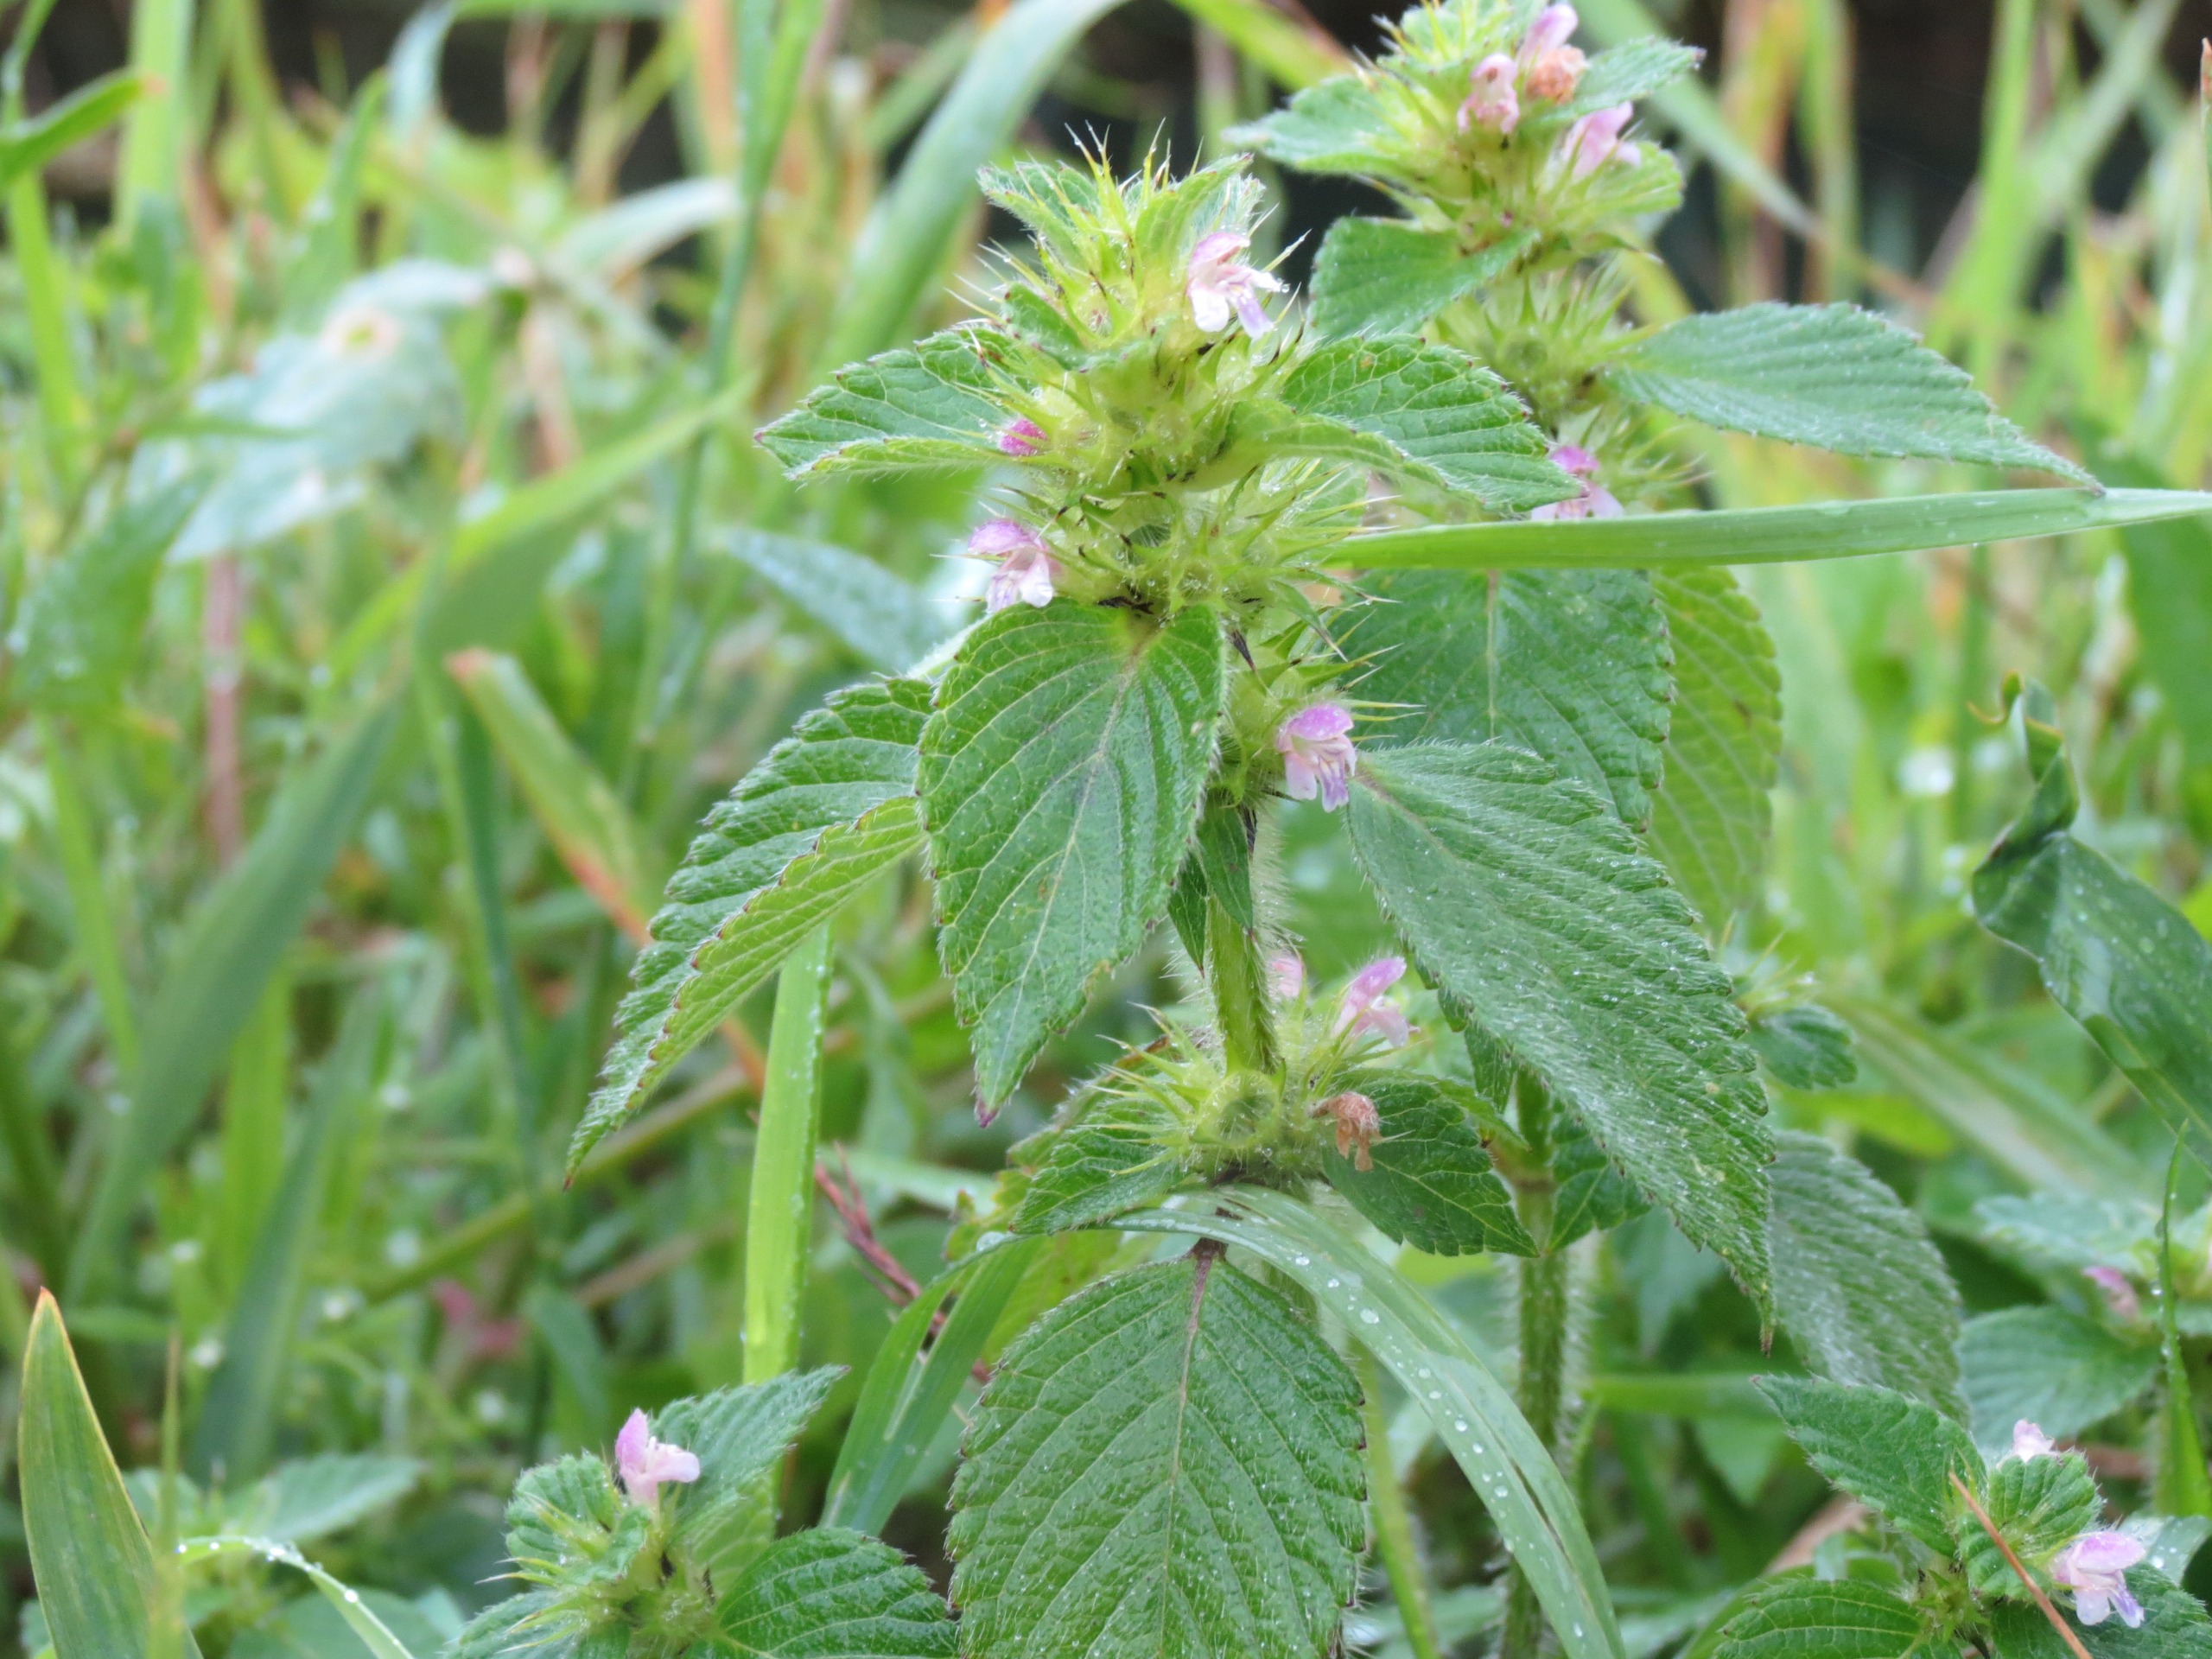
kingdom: Plantae
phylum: Tracheophyta
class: Magnoliopsida
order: Lamiales
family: Lamiaceae
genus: Galeopsis
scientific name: Galeopsis bifida
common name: Skov-hanekro
